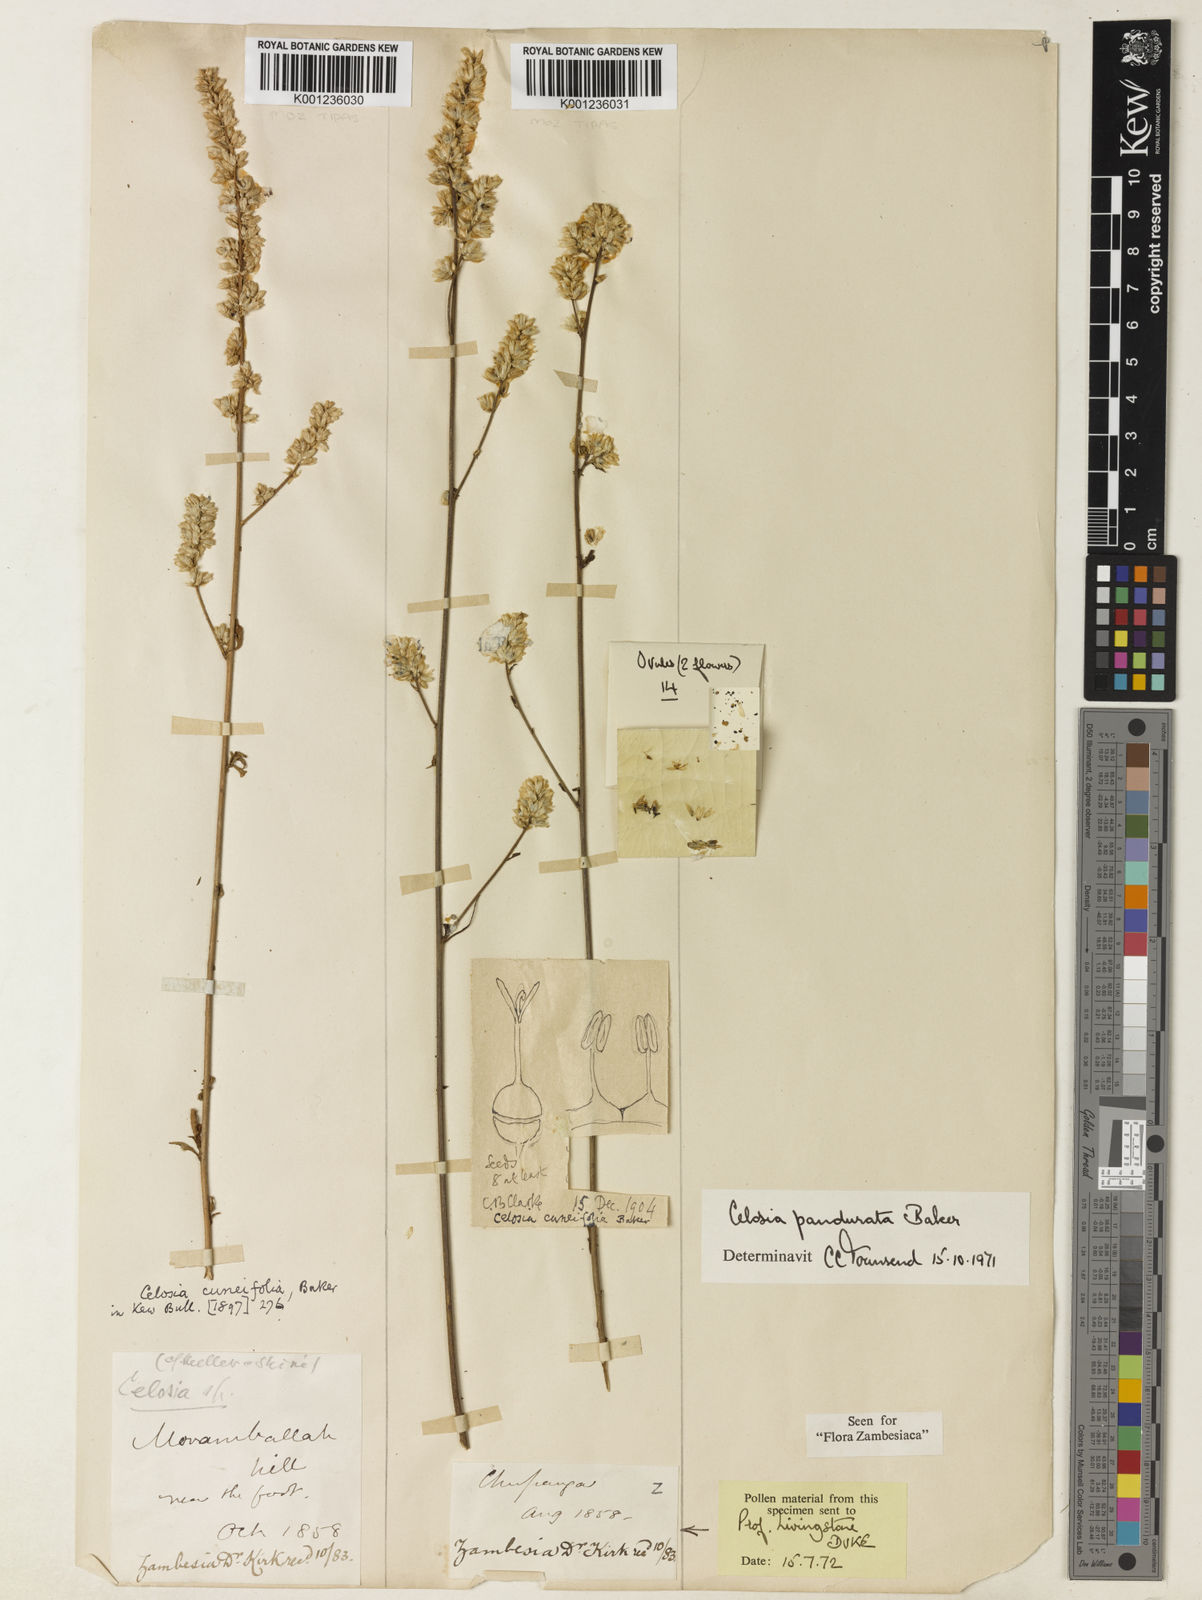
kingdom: Plantae
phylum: Tracheophyta
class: Magnoliopsida
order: Caryophyllales
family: Amaranthaceae
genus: Celosia
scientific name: Celosia pandurata
